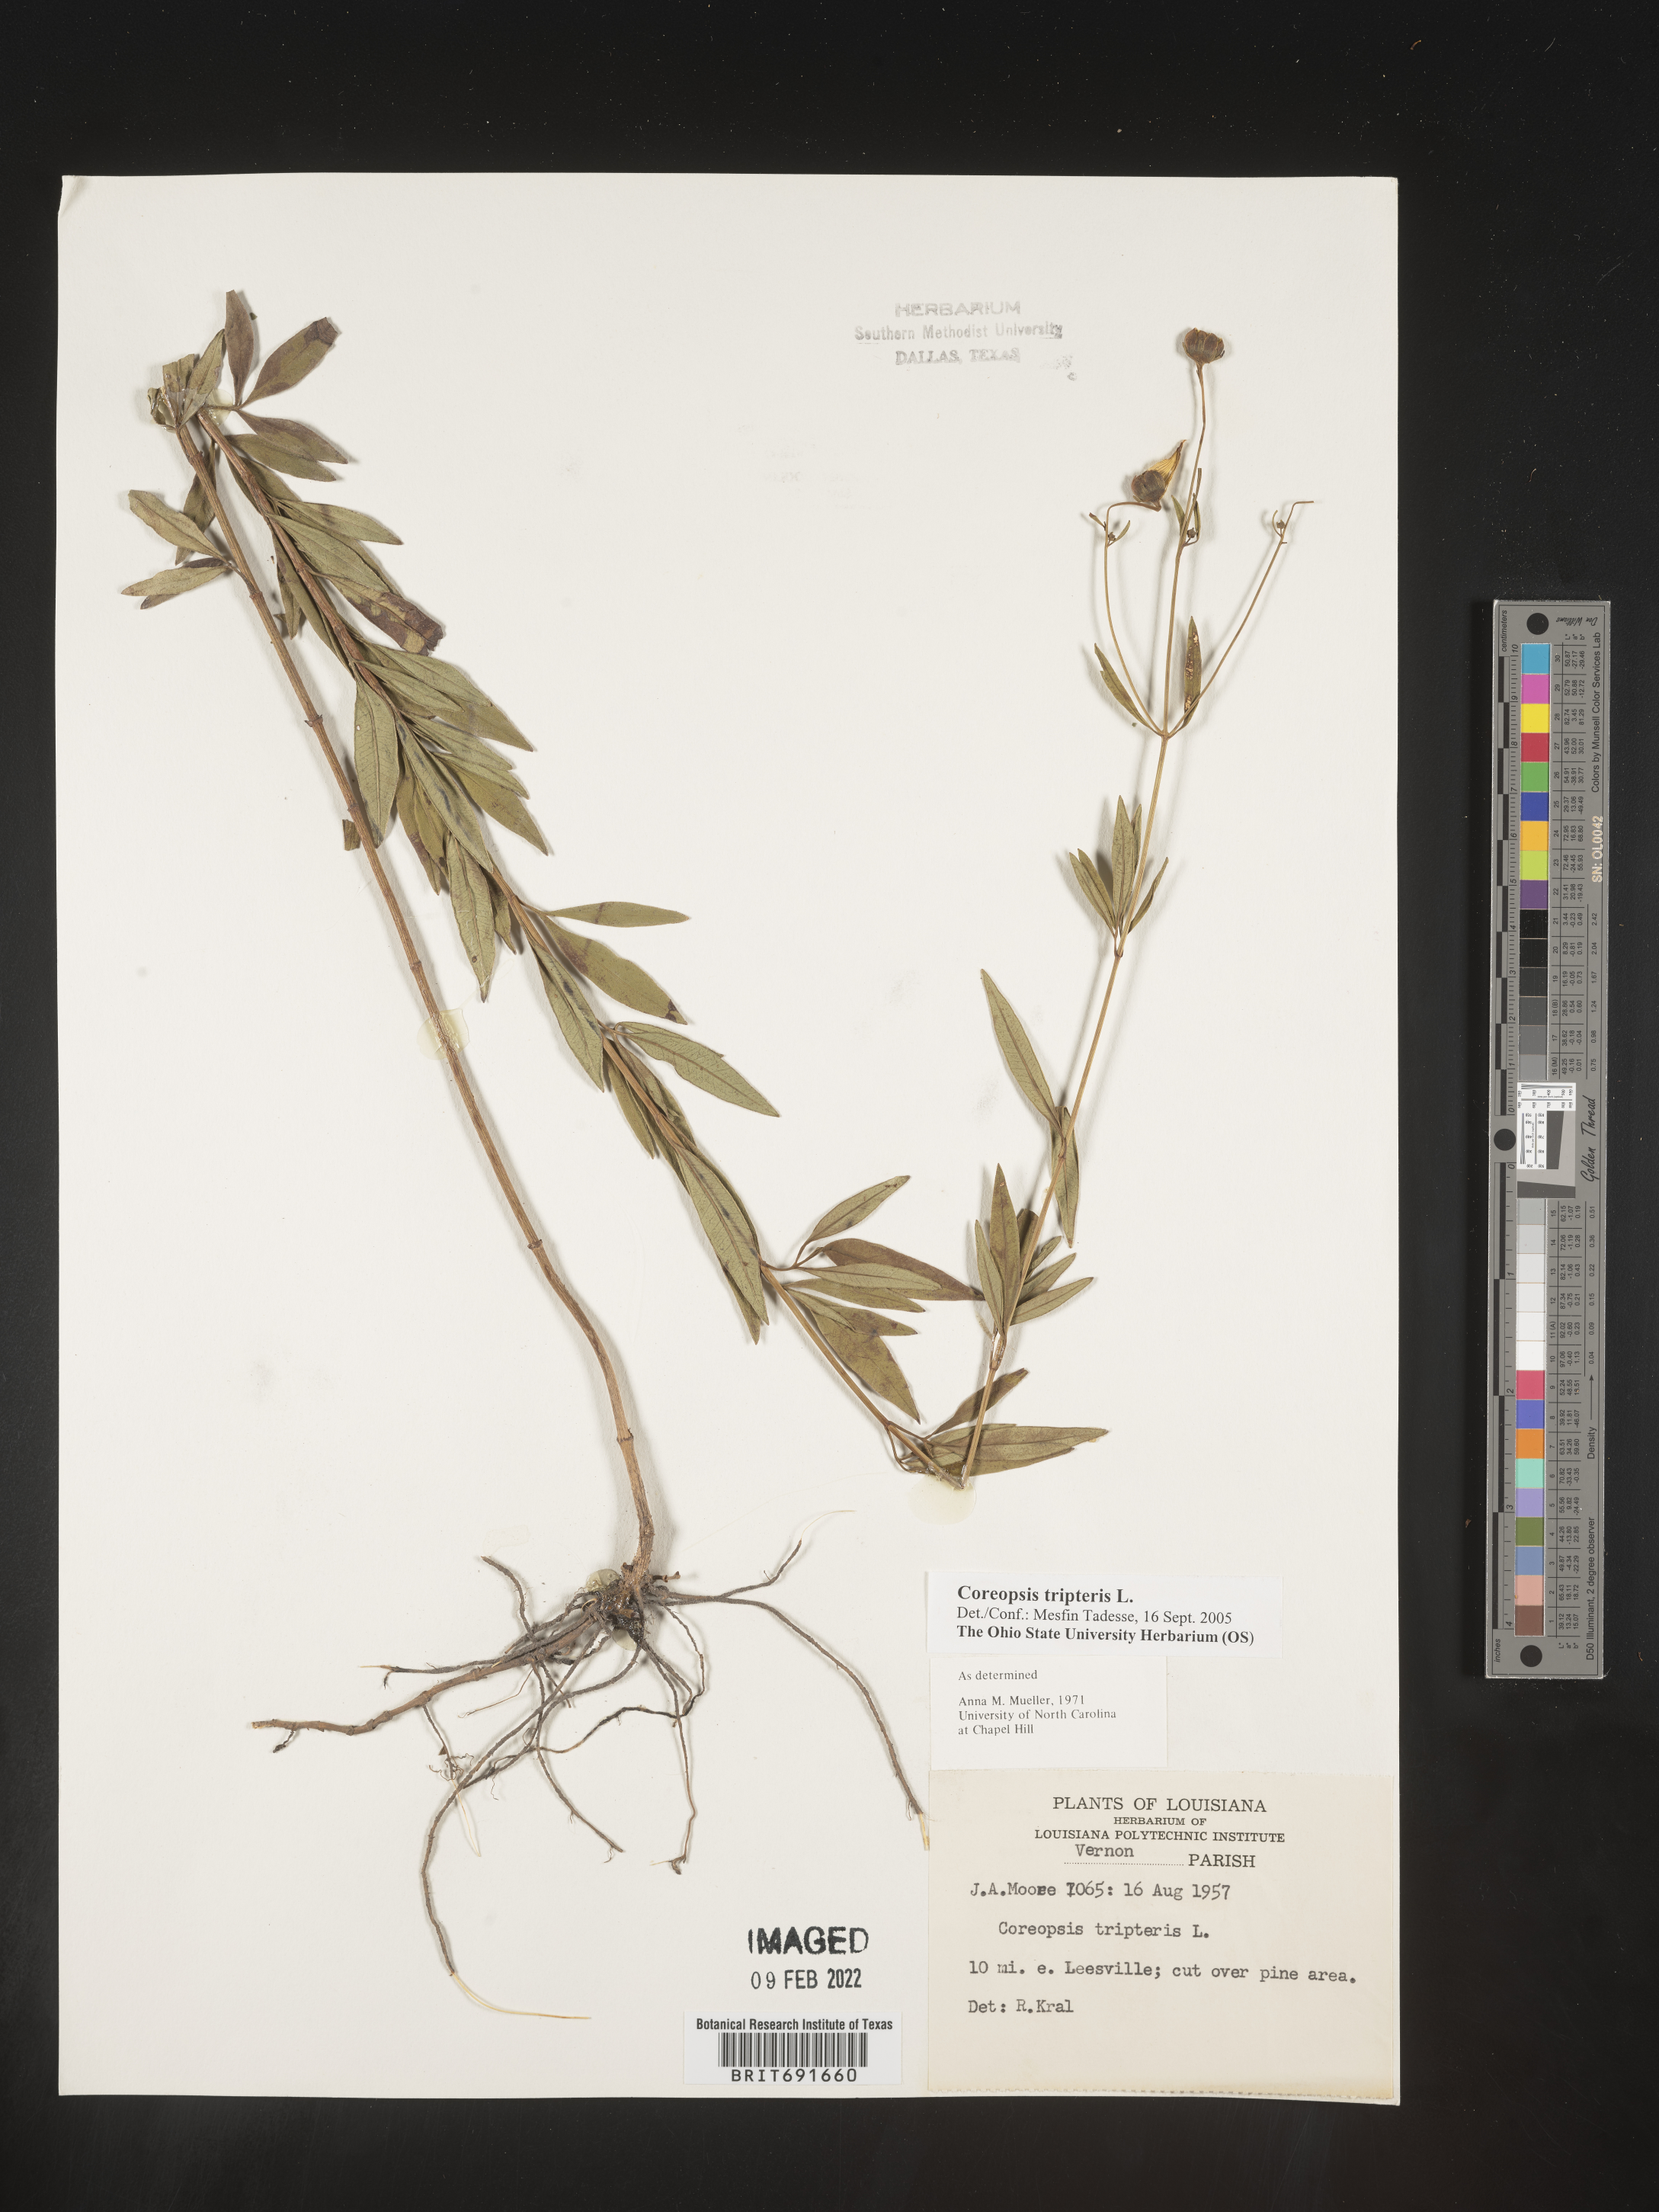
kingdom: Plantae
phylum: Tracheophyta
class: Magnoliopsida
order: Asterales
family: Asteraceae
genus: Coreopsis
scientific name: Coreopsis tripteris
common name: Tall coreopsis
